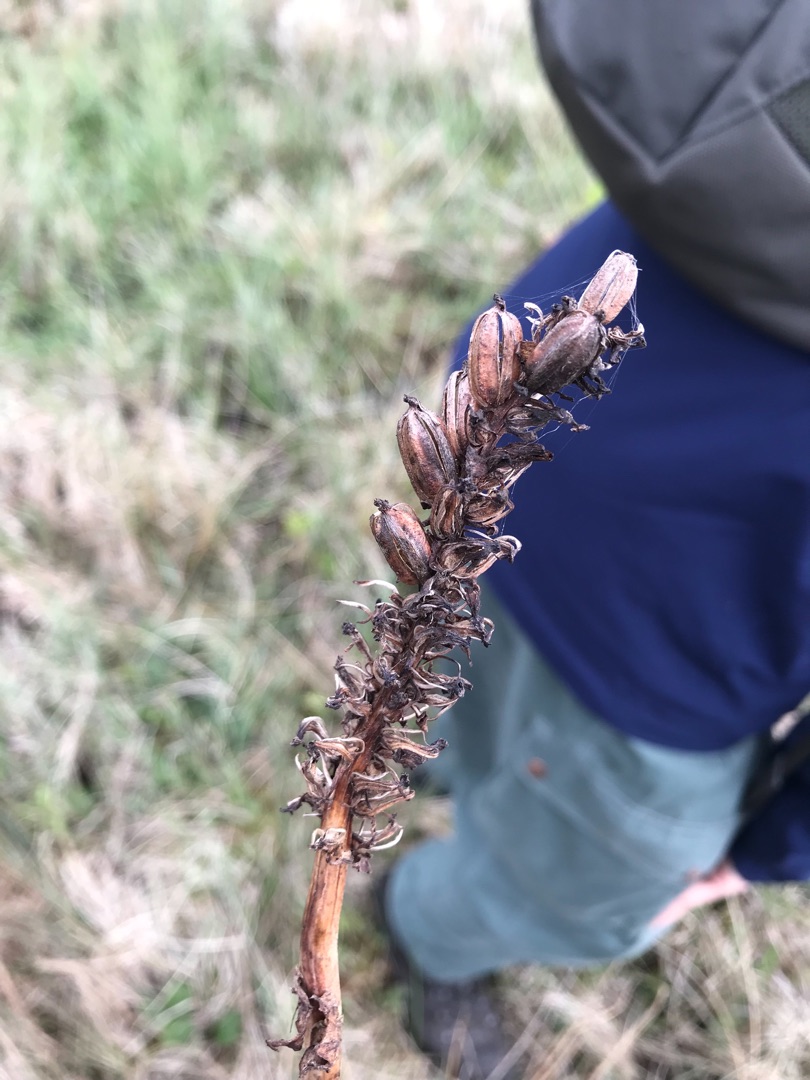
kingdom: Plantae
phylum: Tracheophyta
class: Liliopsida
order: Asparagales
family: Orchidaceae
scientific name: Orchidaceae
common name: Orkidéfamilien
